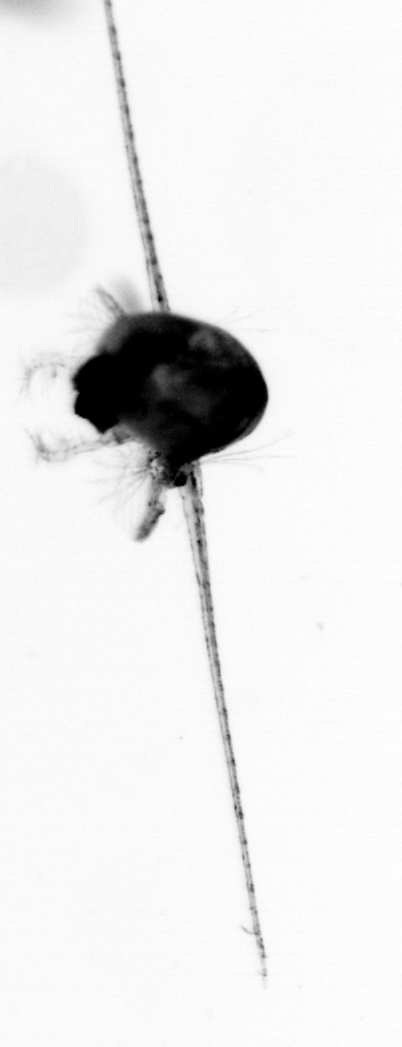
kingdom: Animalia
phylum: Arthropoda
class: Copepoda
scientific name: Copepoda
